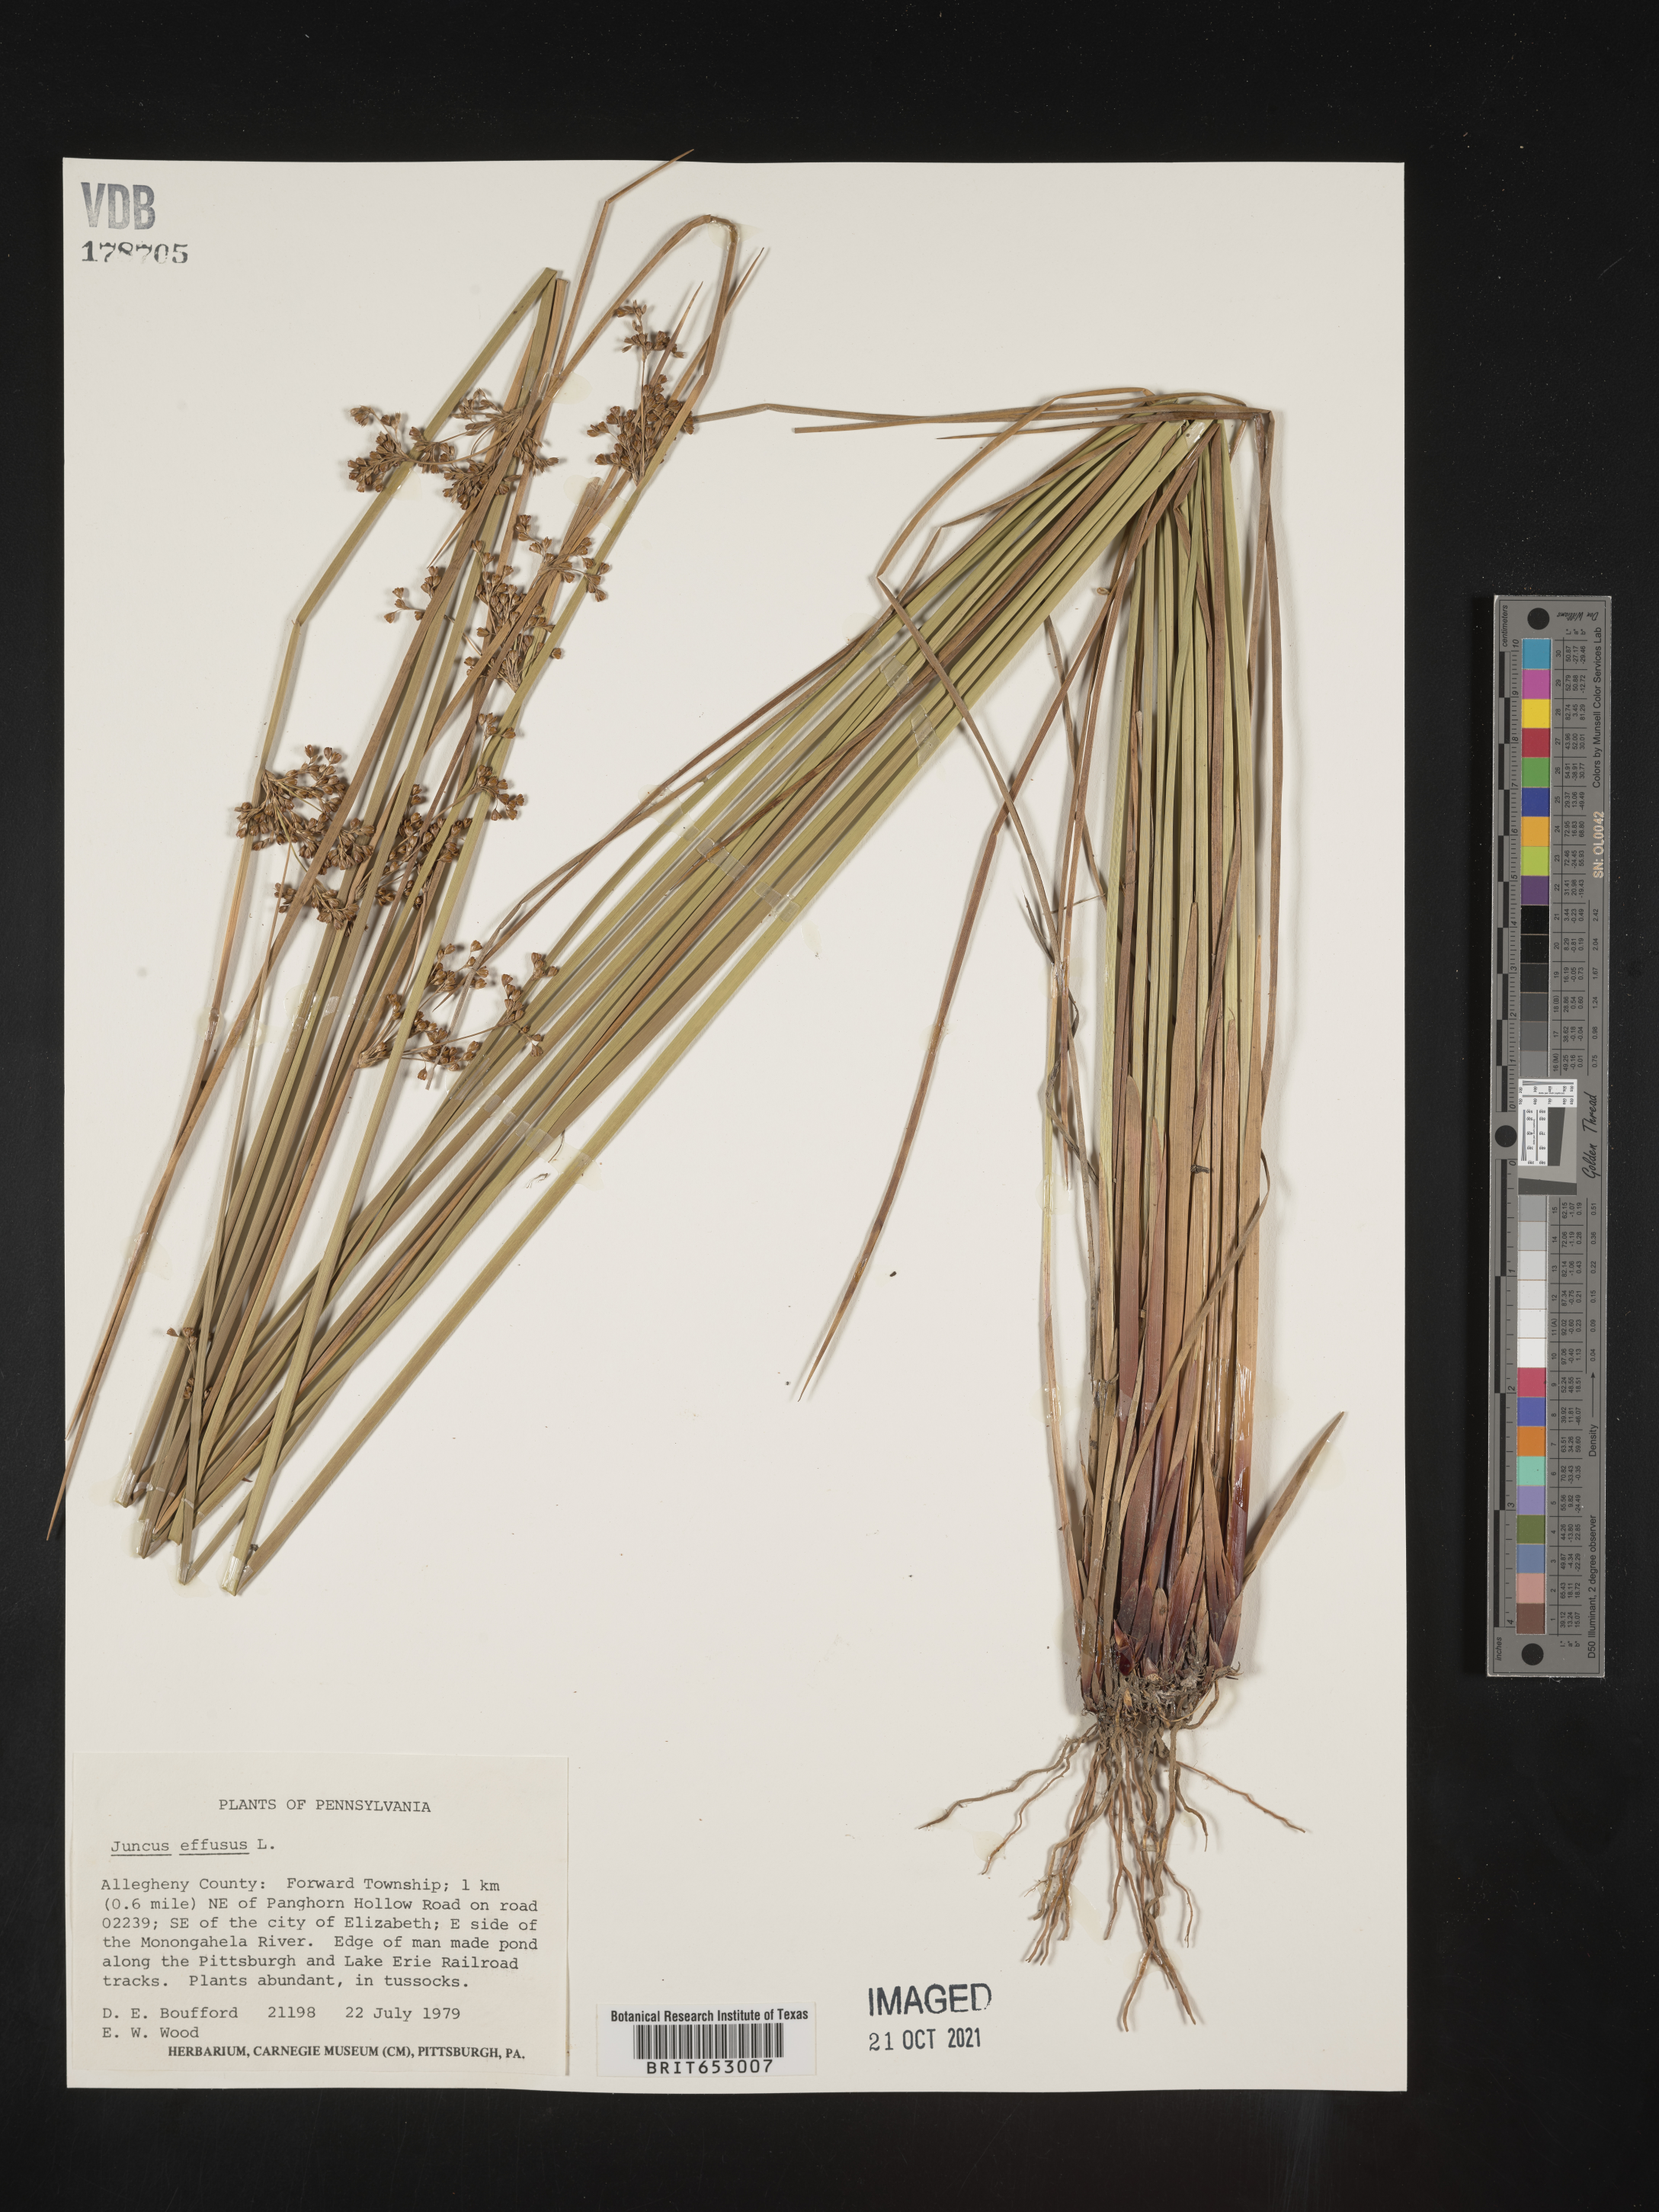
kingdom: Plantae
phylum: Tracheophyta
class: Liliopsida
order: Poales
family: Juncaceae
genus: Juncus
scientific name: Juncus effusus
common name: Soft rush
